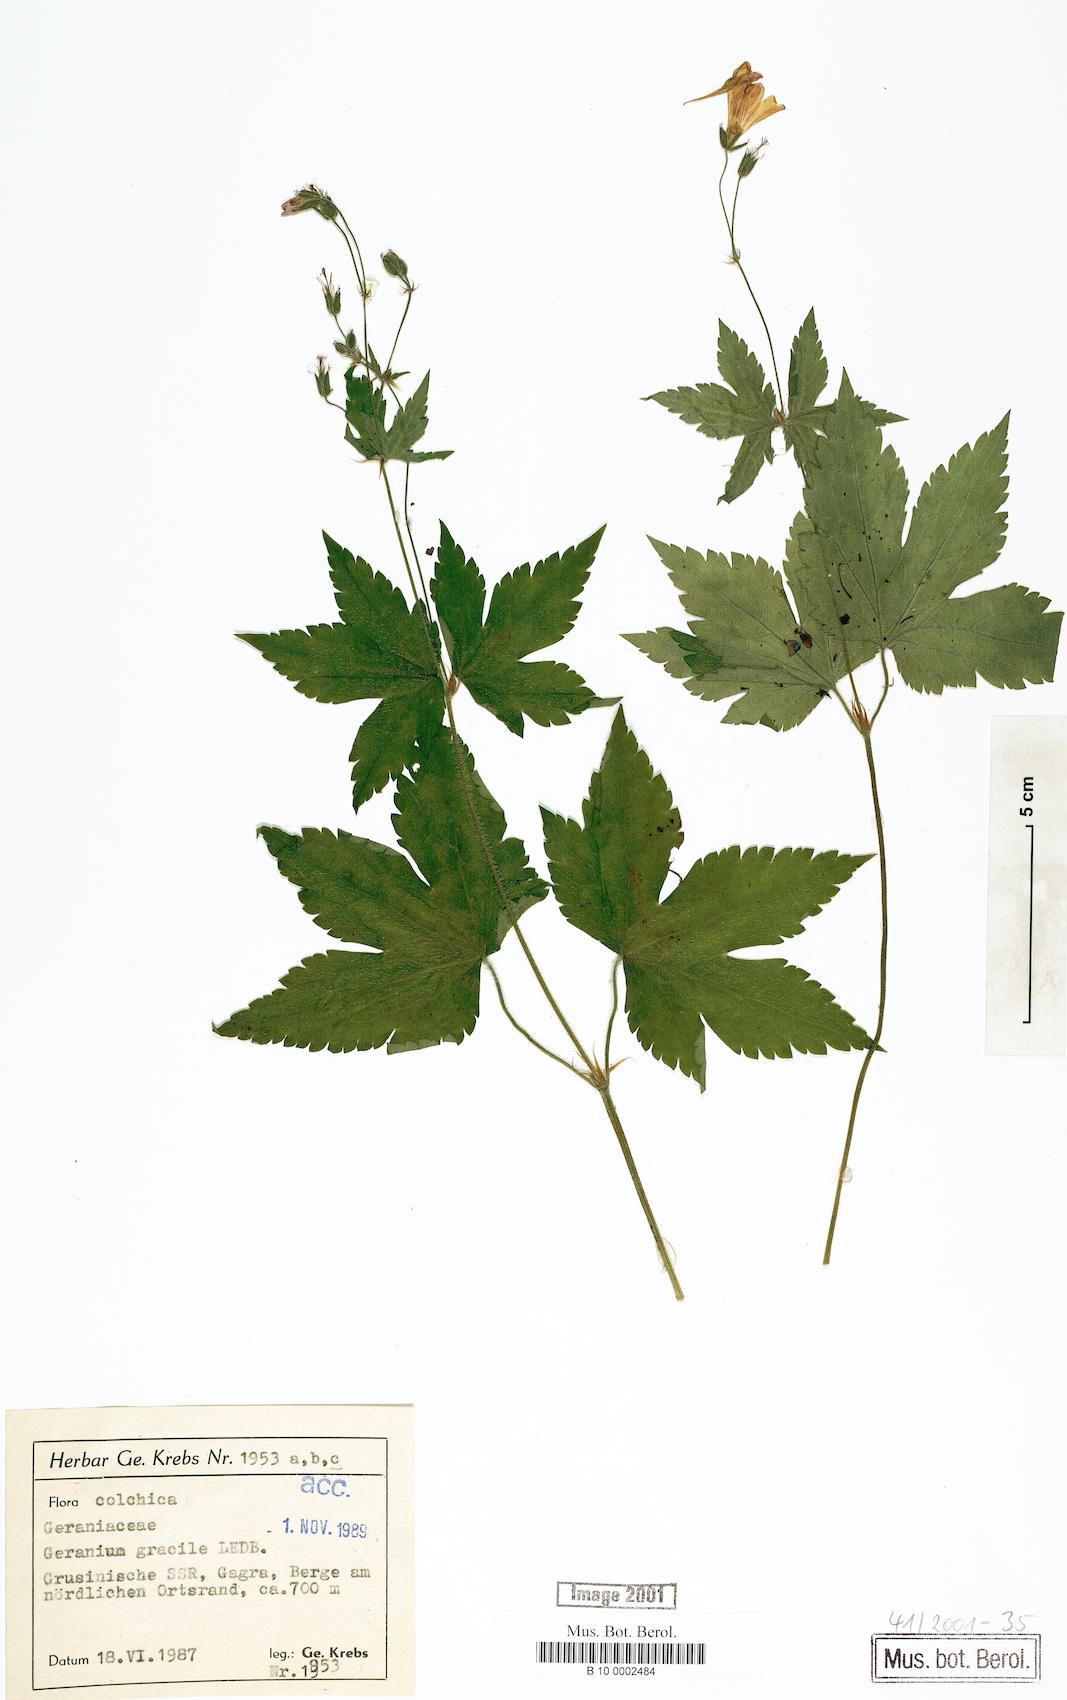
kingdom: Plantae
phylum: Tracheophyta
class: Magnoliopsida
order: Geraniales
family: Geraniaceae
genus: Geranium
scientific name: Geranium gracile
